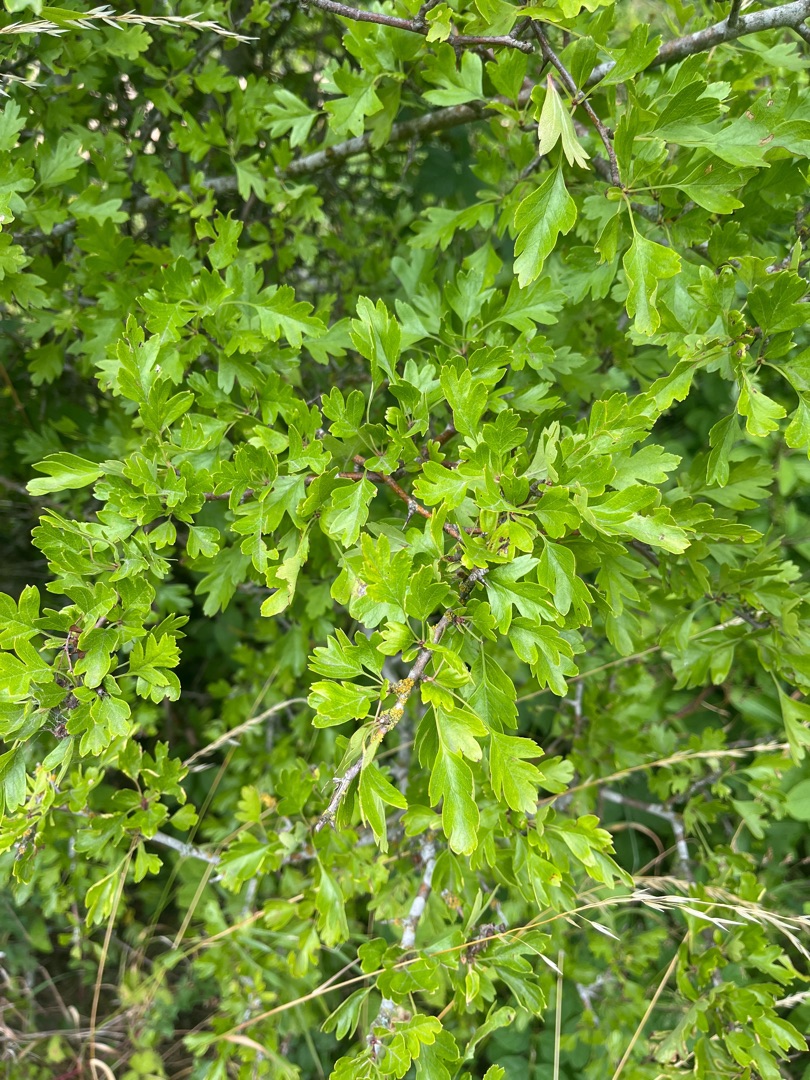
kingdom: Plantae
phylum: Tracheophyta
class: Magnoliopsida
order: Rosales
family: Rosaceae
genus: Crataegus
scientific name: Crataegus monogyna
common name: Engriflet hvidtjørn
